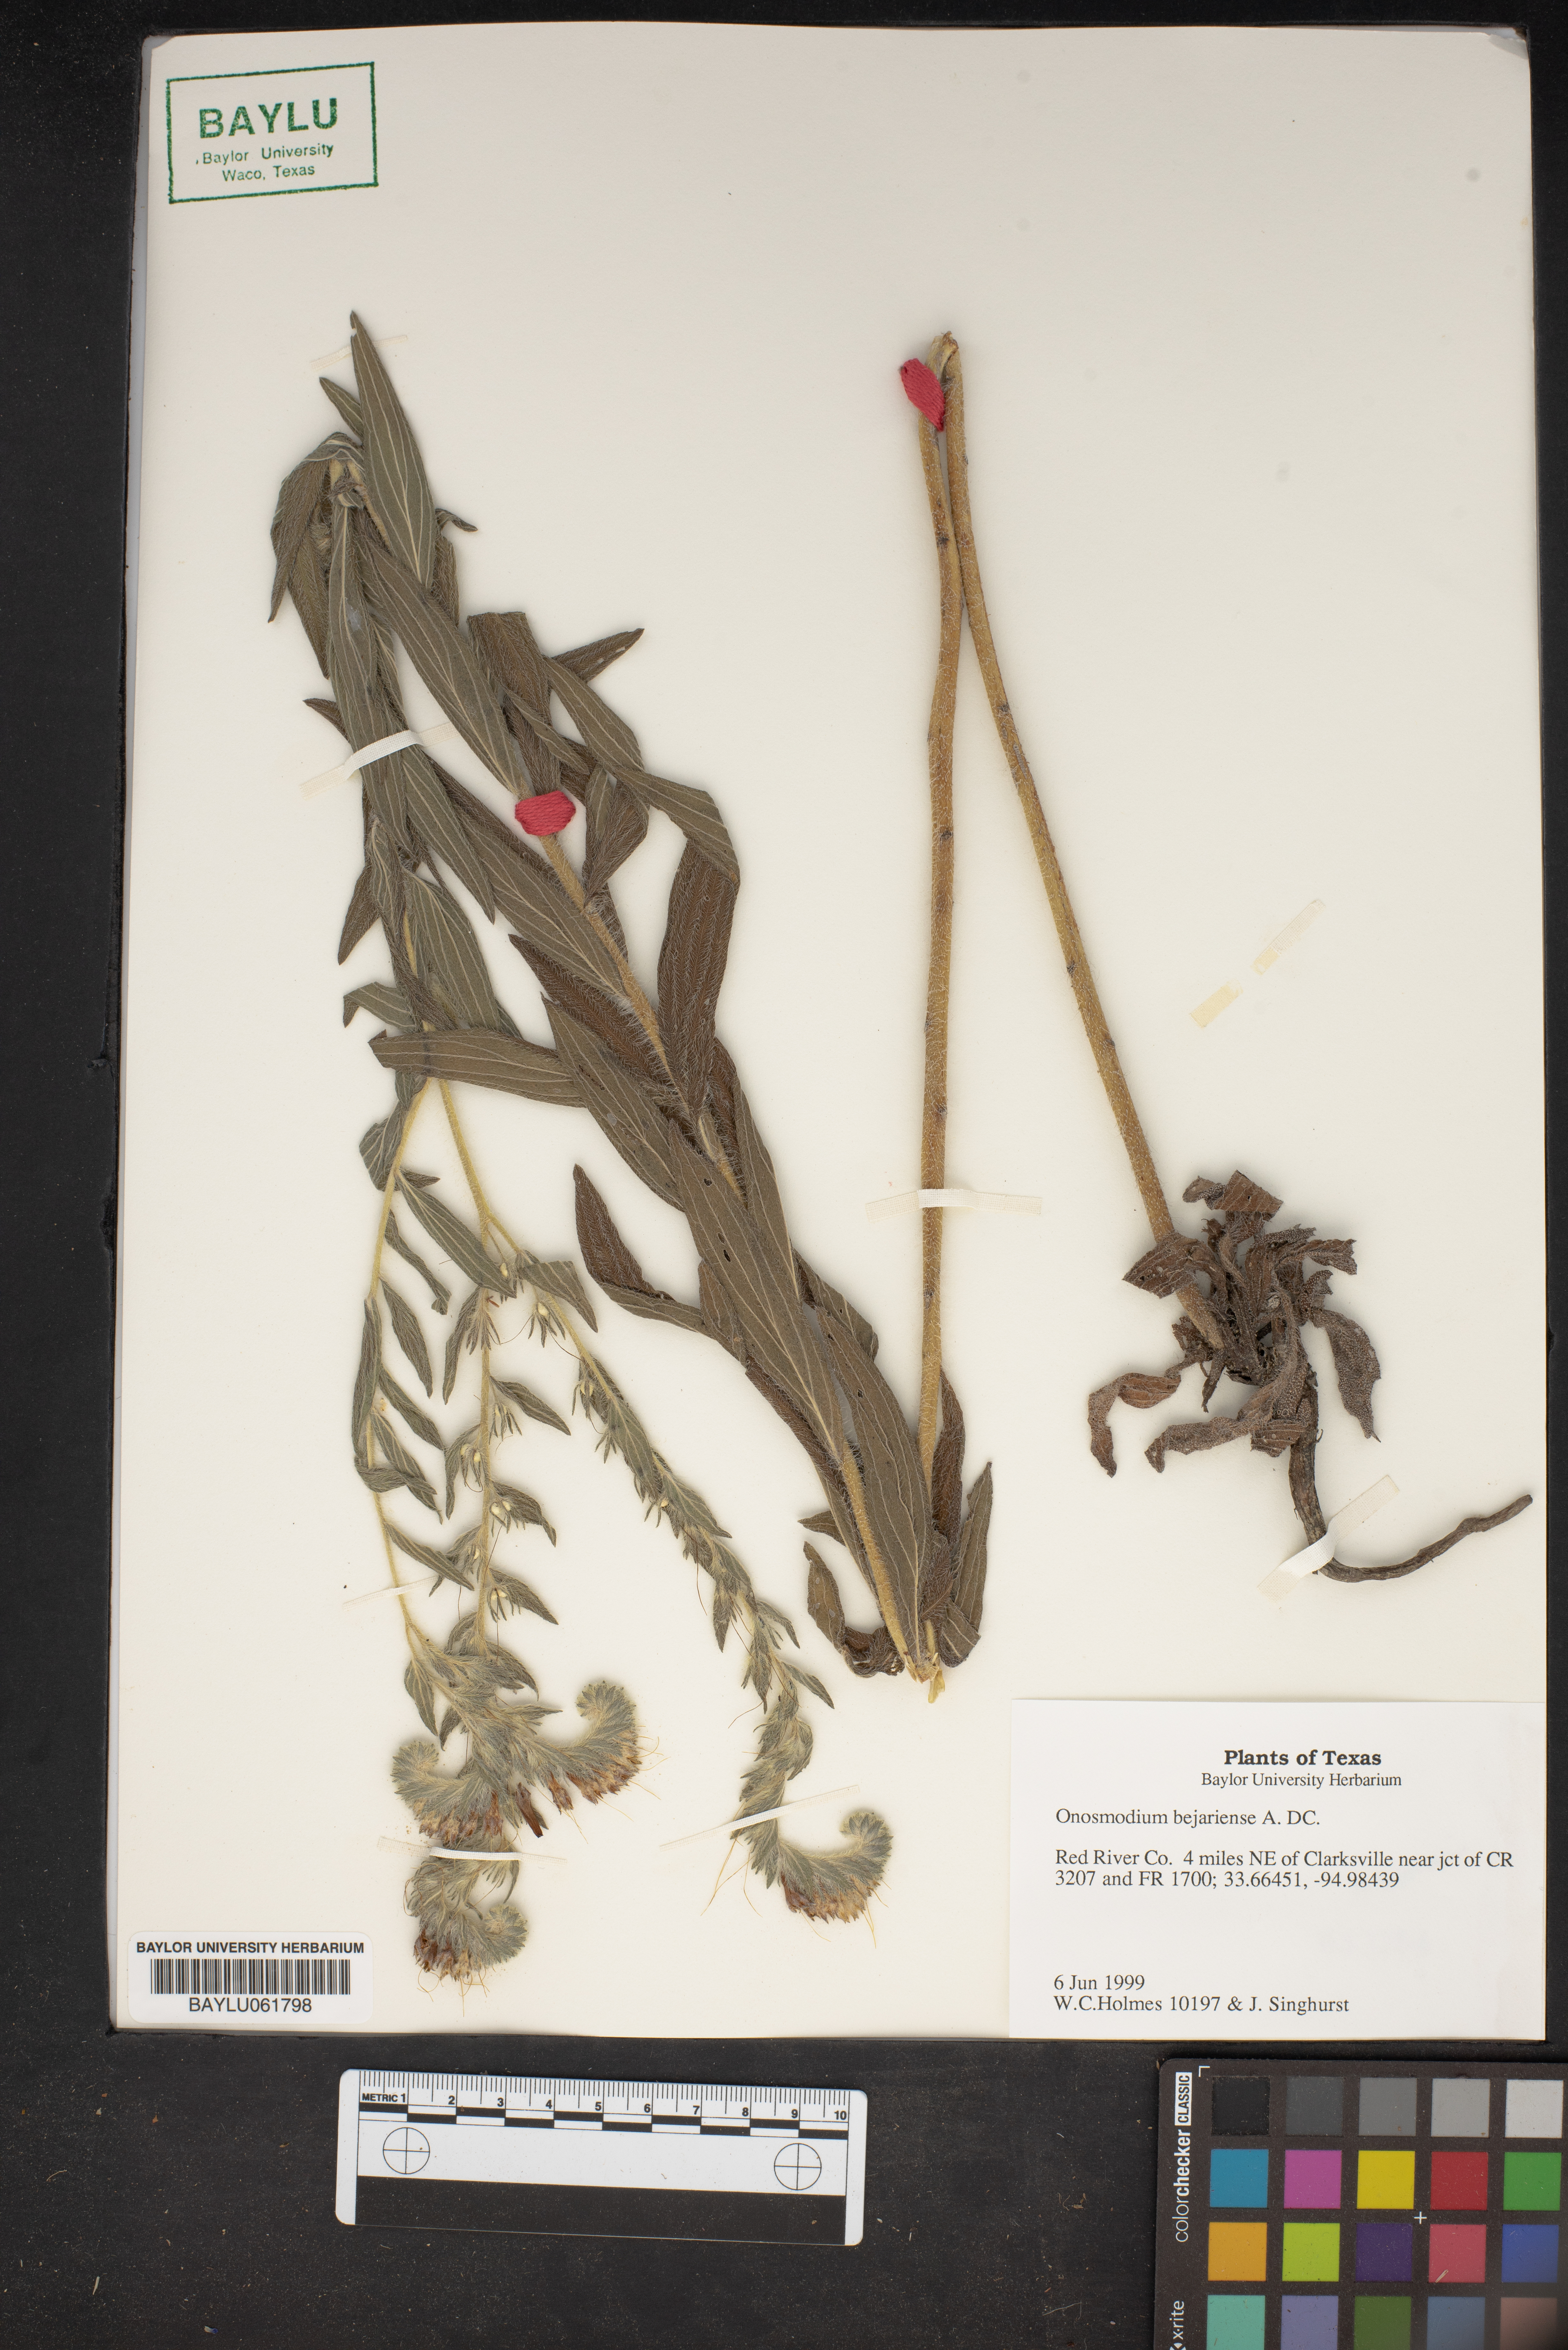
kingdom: Plantae
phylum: Tracheophyta
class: Magnoliopsida
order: Boraginales
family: Boraginaceae
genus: Lithospermum
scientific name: Lithospermum molle
